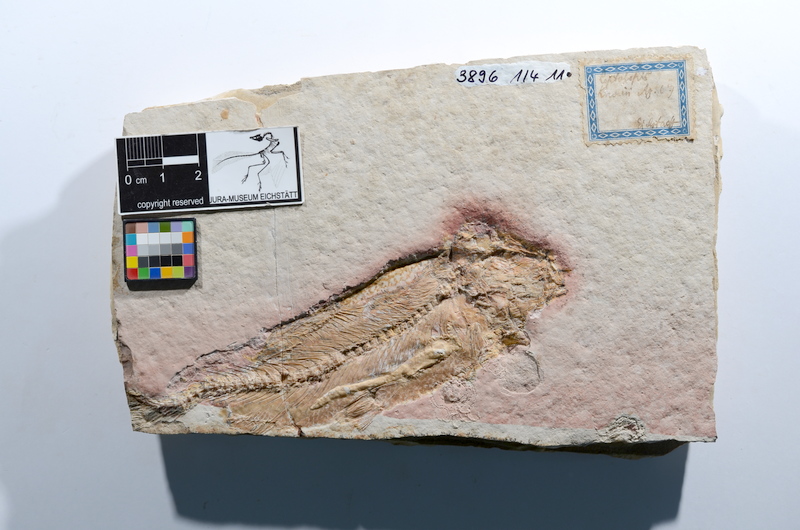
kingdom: Animalia
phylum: Chordata
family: Ascalaboidae
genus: Tharsis
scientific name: Tharsis dubius
